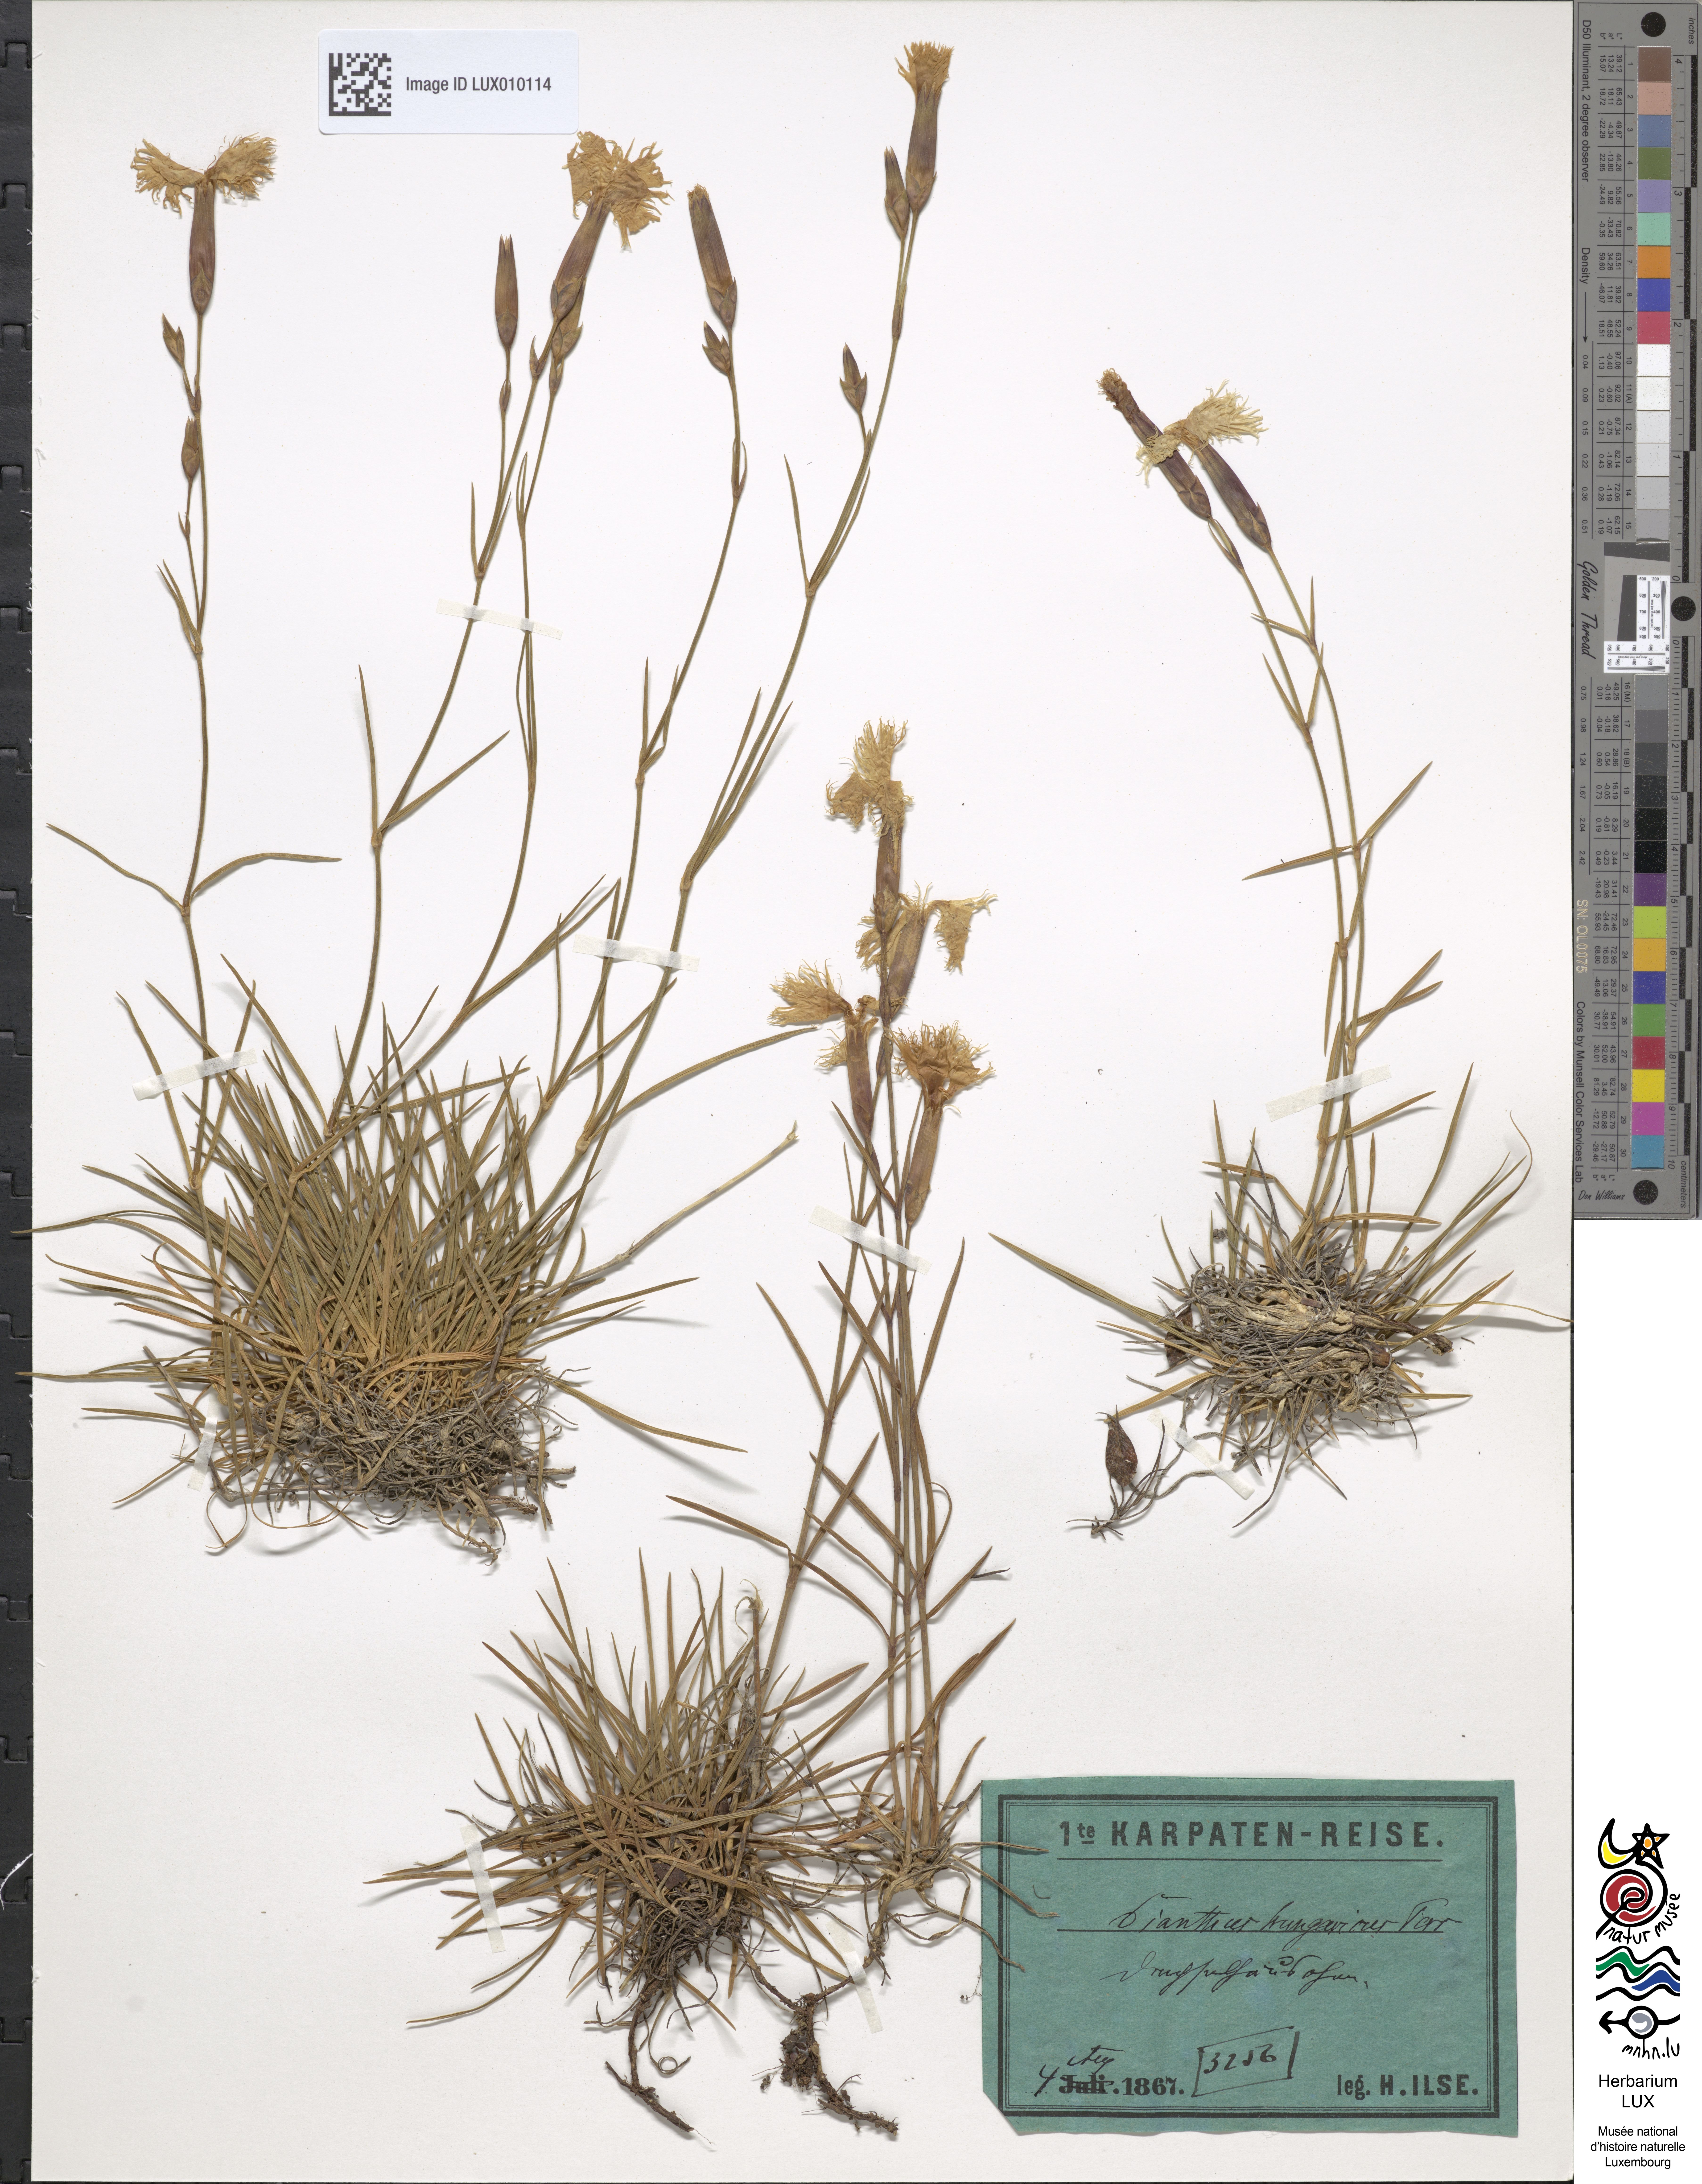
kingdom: Plantae
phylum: Tracheophyta
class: Magnoliopsida
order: Caryophyllales
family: Caryophyllaceae
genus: Dianthus
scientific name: Dianthus plumarius
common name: Pink
